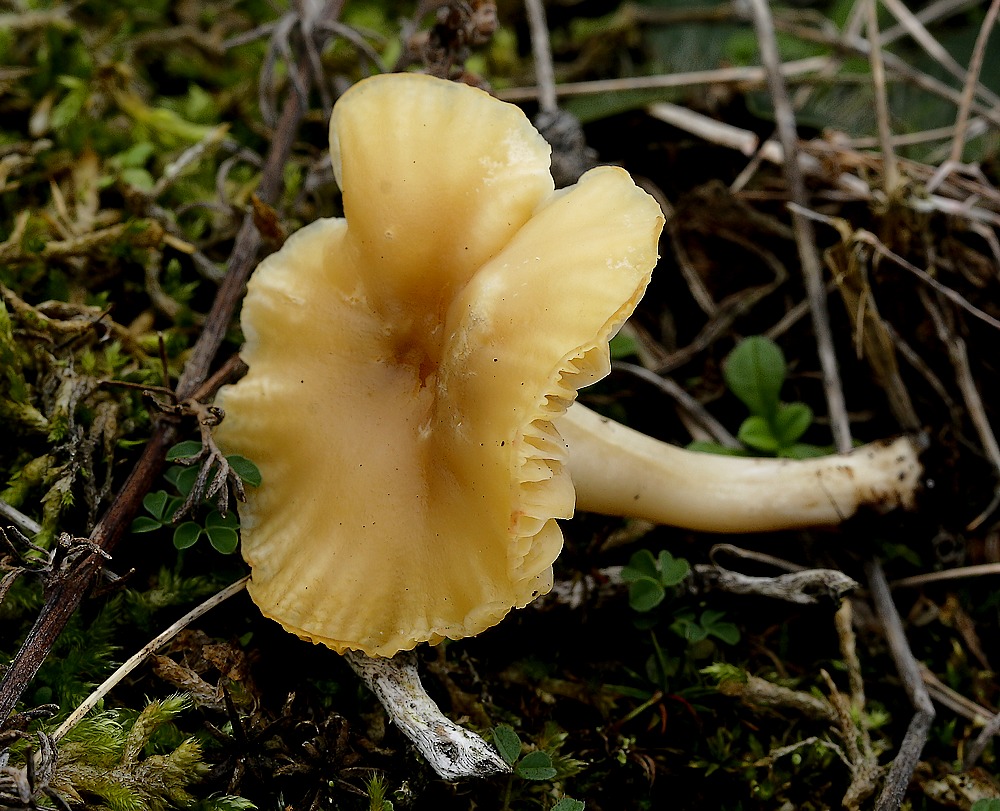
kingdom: Fungi
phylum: Basidiomycota
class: Agaricomycetes
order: Agaricales
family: Hygrophoraceae
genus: Cuphophyllus
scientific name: Cuphophyllus
